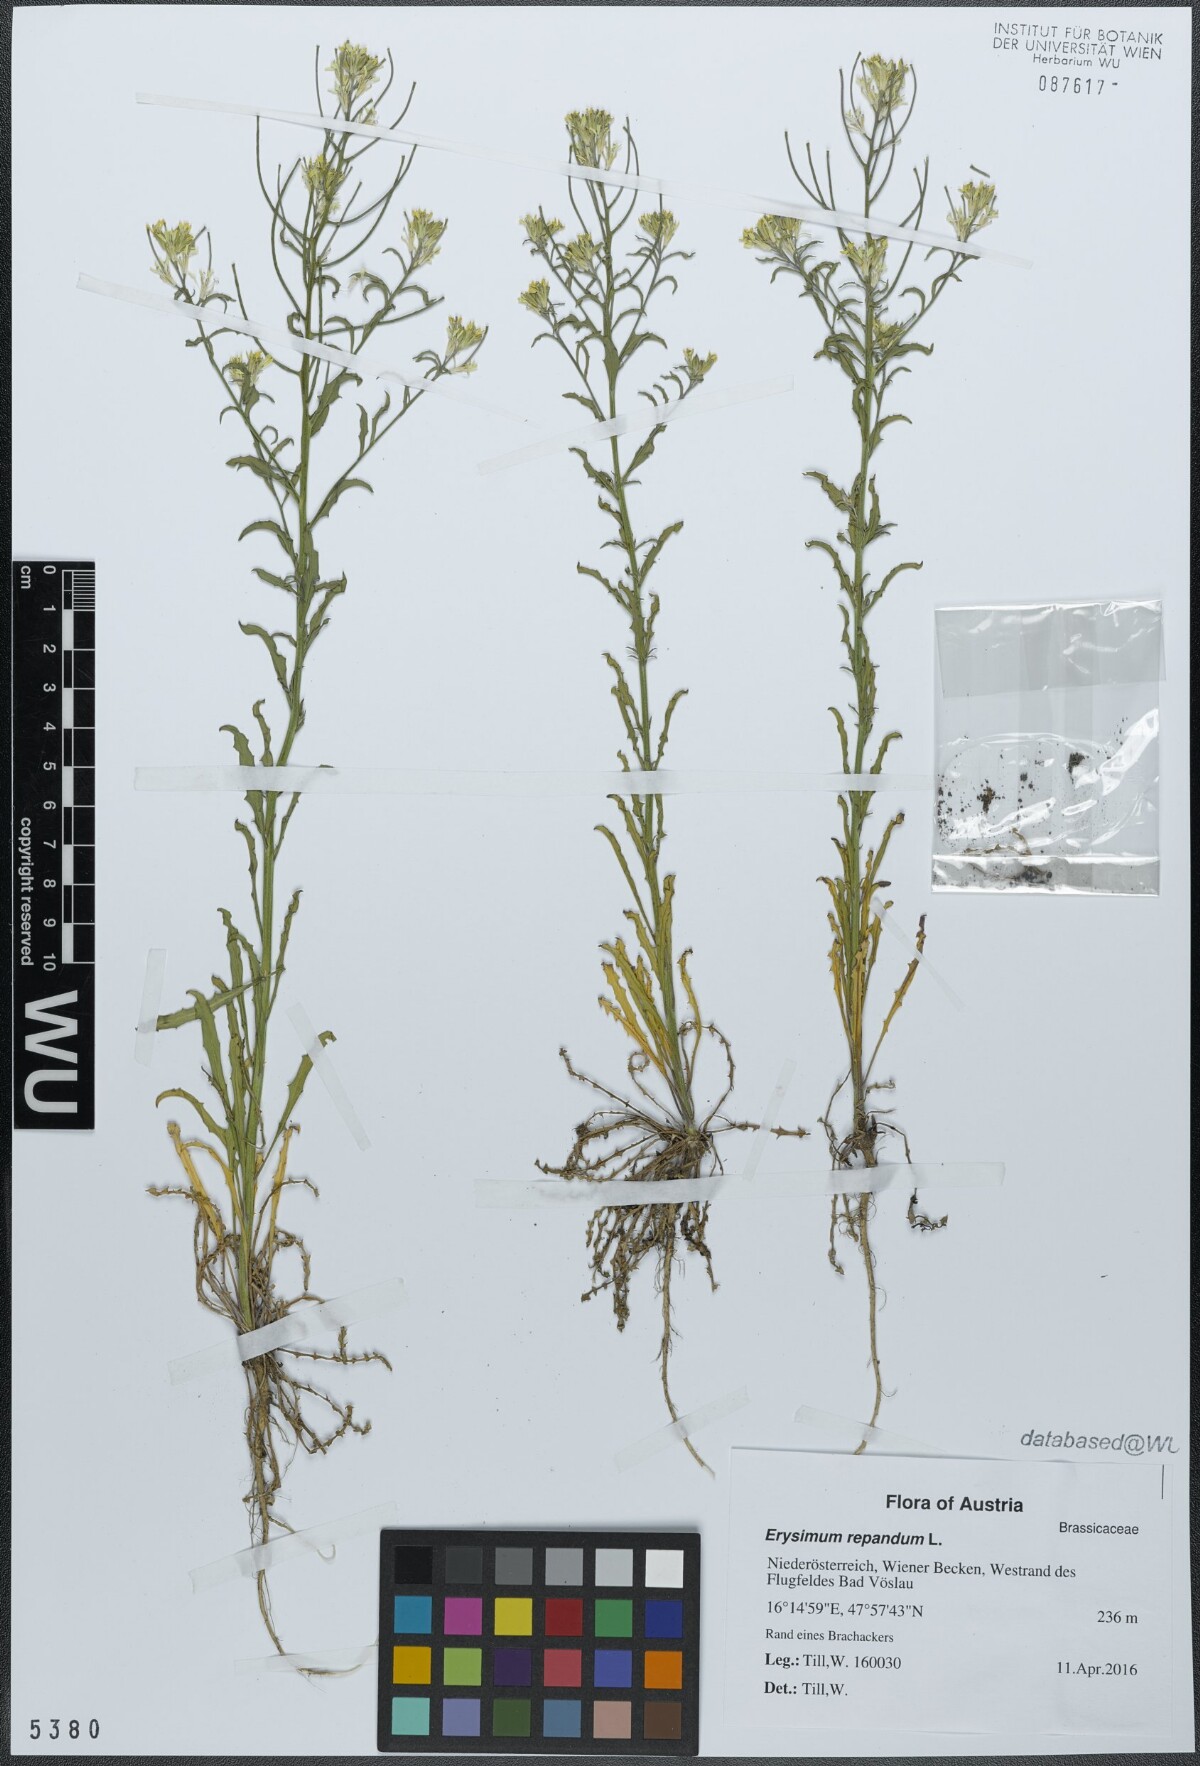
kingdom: Plantae
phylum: Tracheophyta
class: Magnoliopsida
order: Brassicales
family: Brassicaceae
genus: Erysimum
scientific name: Erysimum repandum
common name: Spreading wallflower
